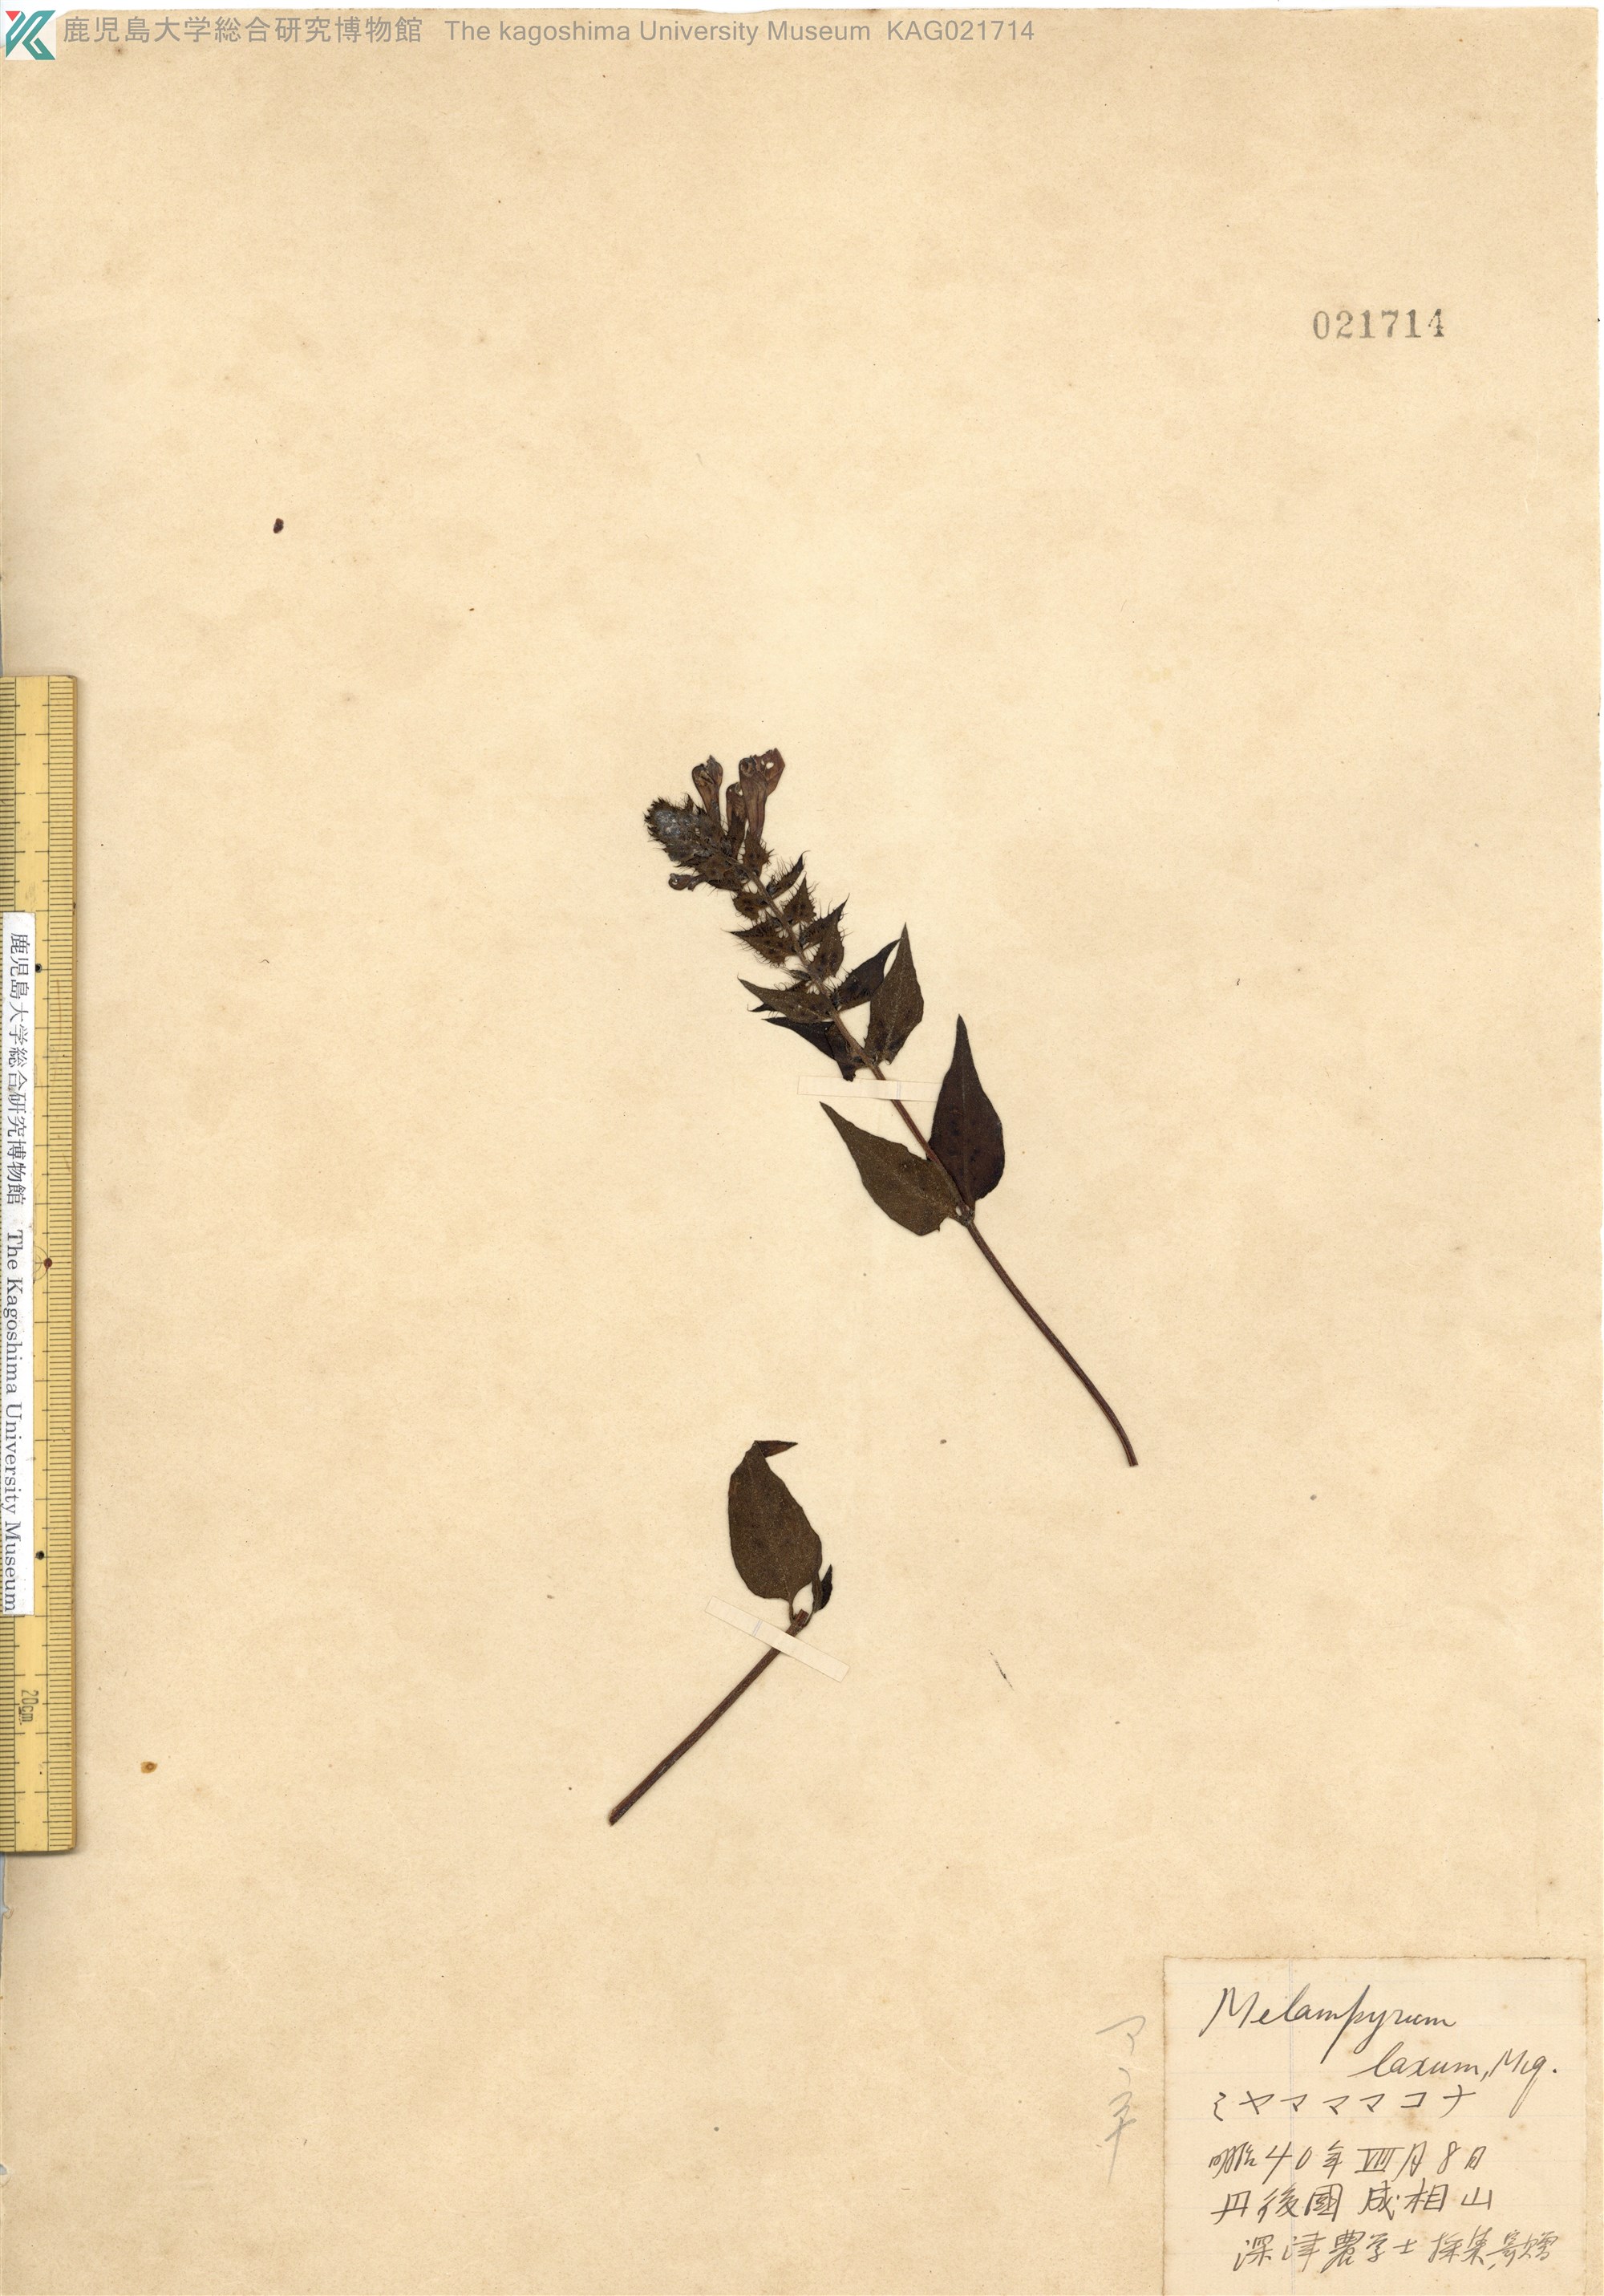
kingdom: Plantae
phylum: Tracheophyta
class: Magnoliopsida
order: Lamiales
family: Orobanchaceae
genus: Melampyrum
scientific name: Melampyrum roseum
